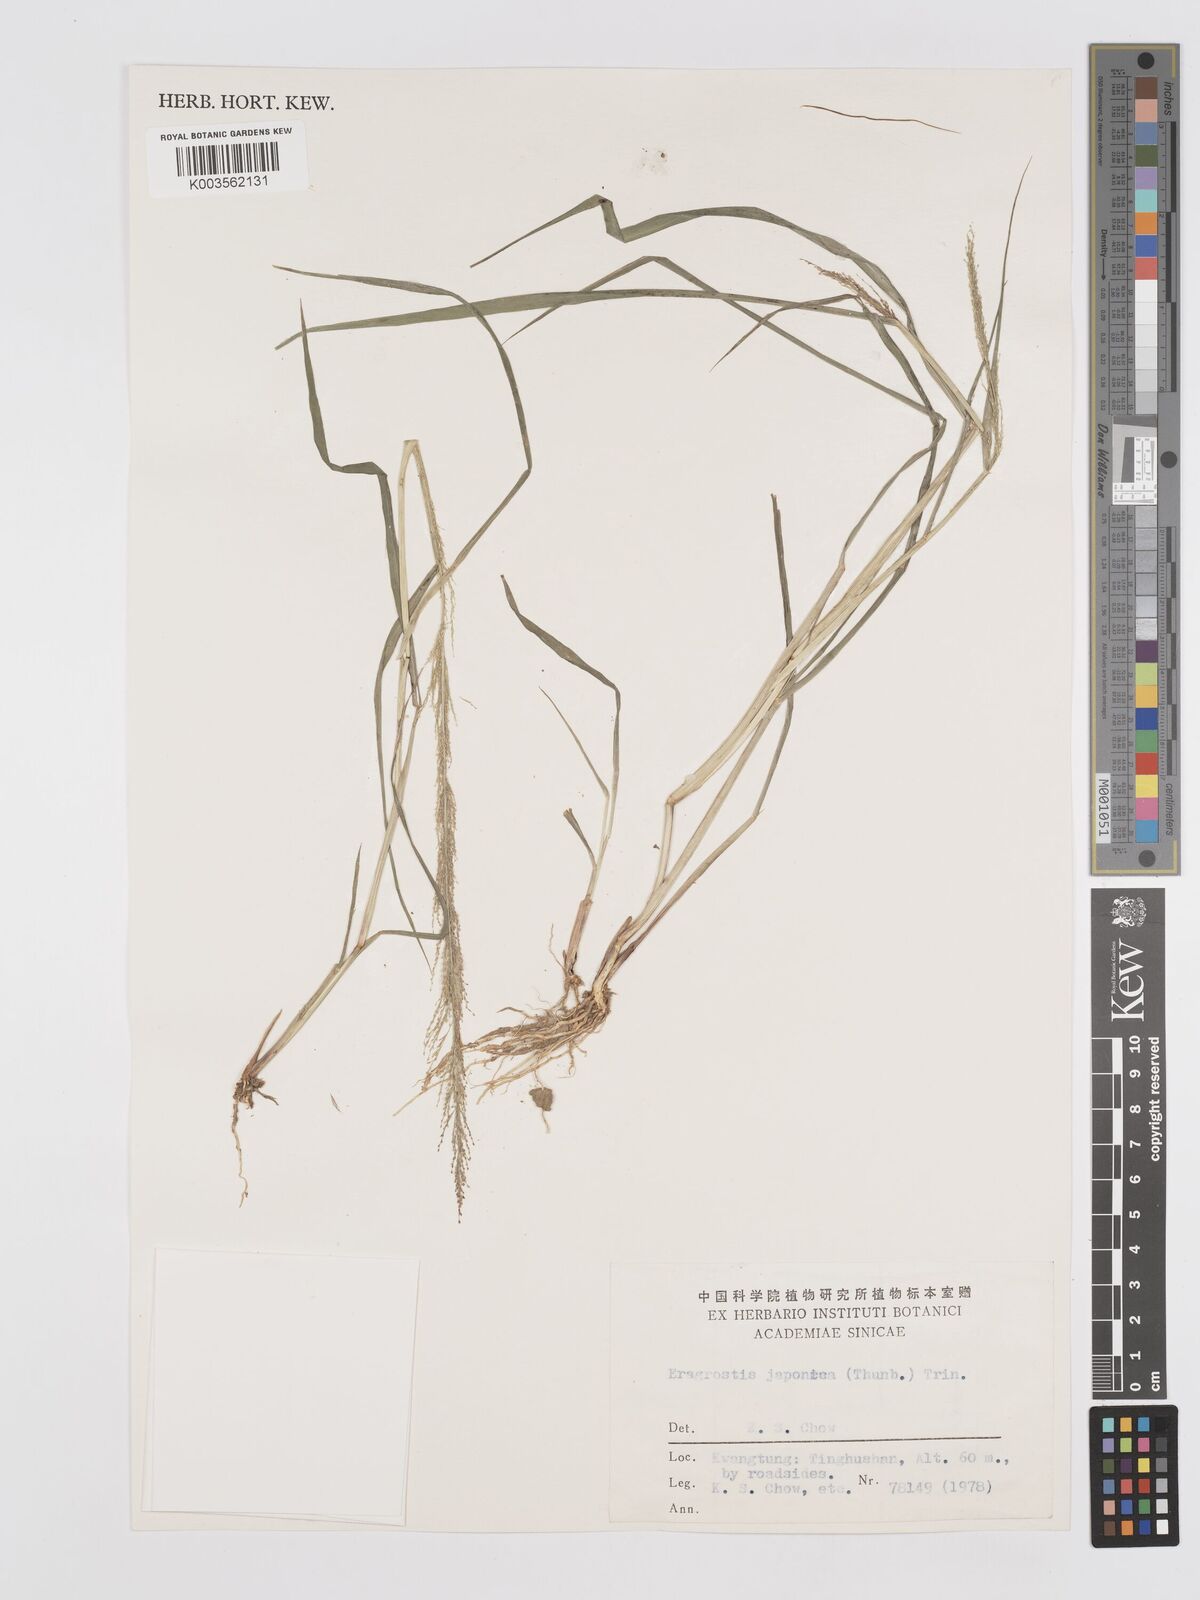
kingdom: Plantae
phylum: Tracheophyta
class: Liliopsida
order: Poales
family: Poaceae
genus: Eragrostis
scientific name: Eragrostis japonica
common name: Pond lovegrass
